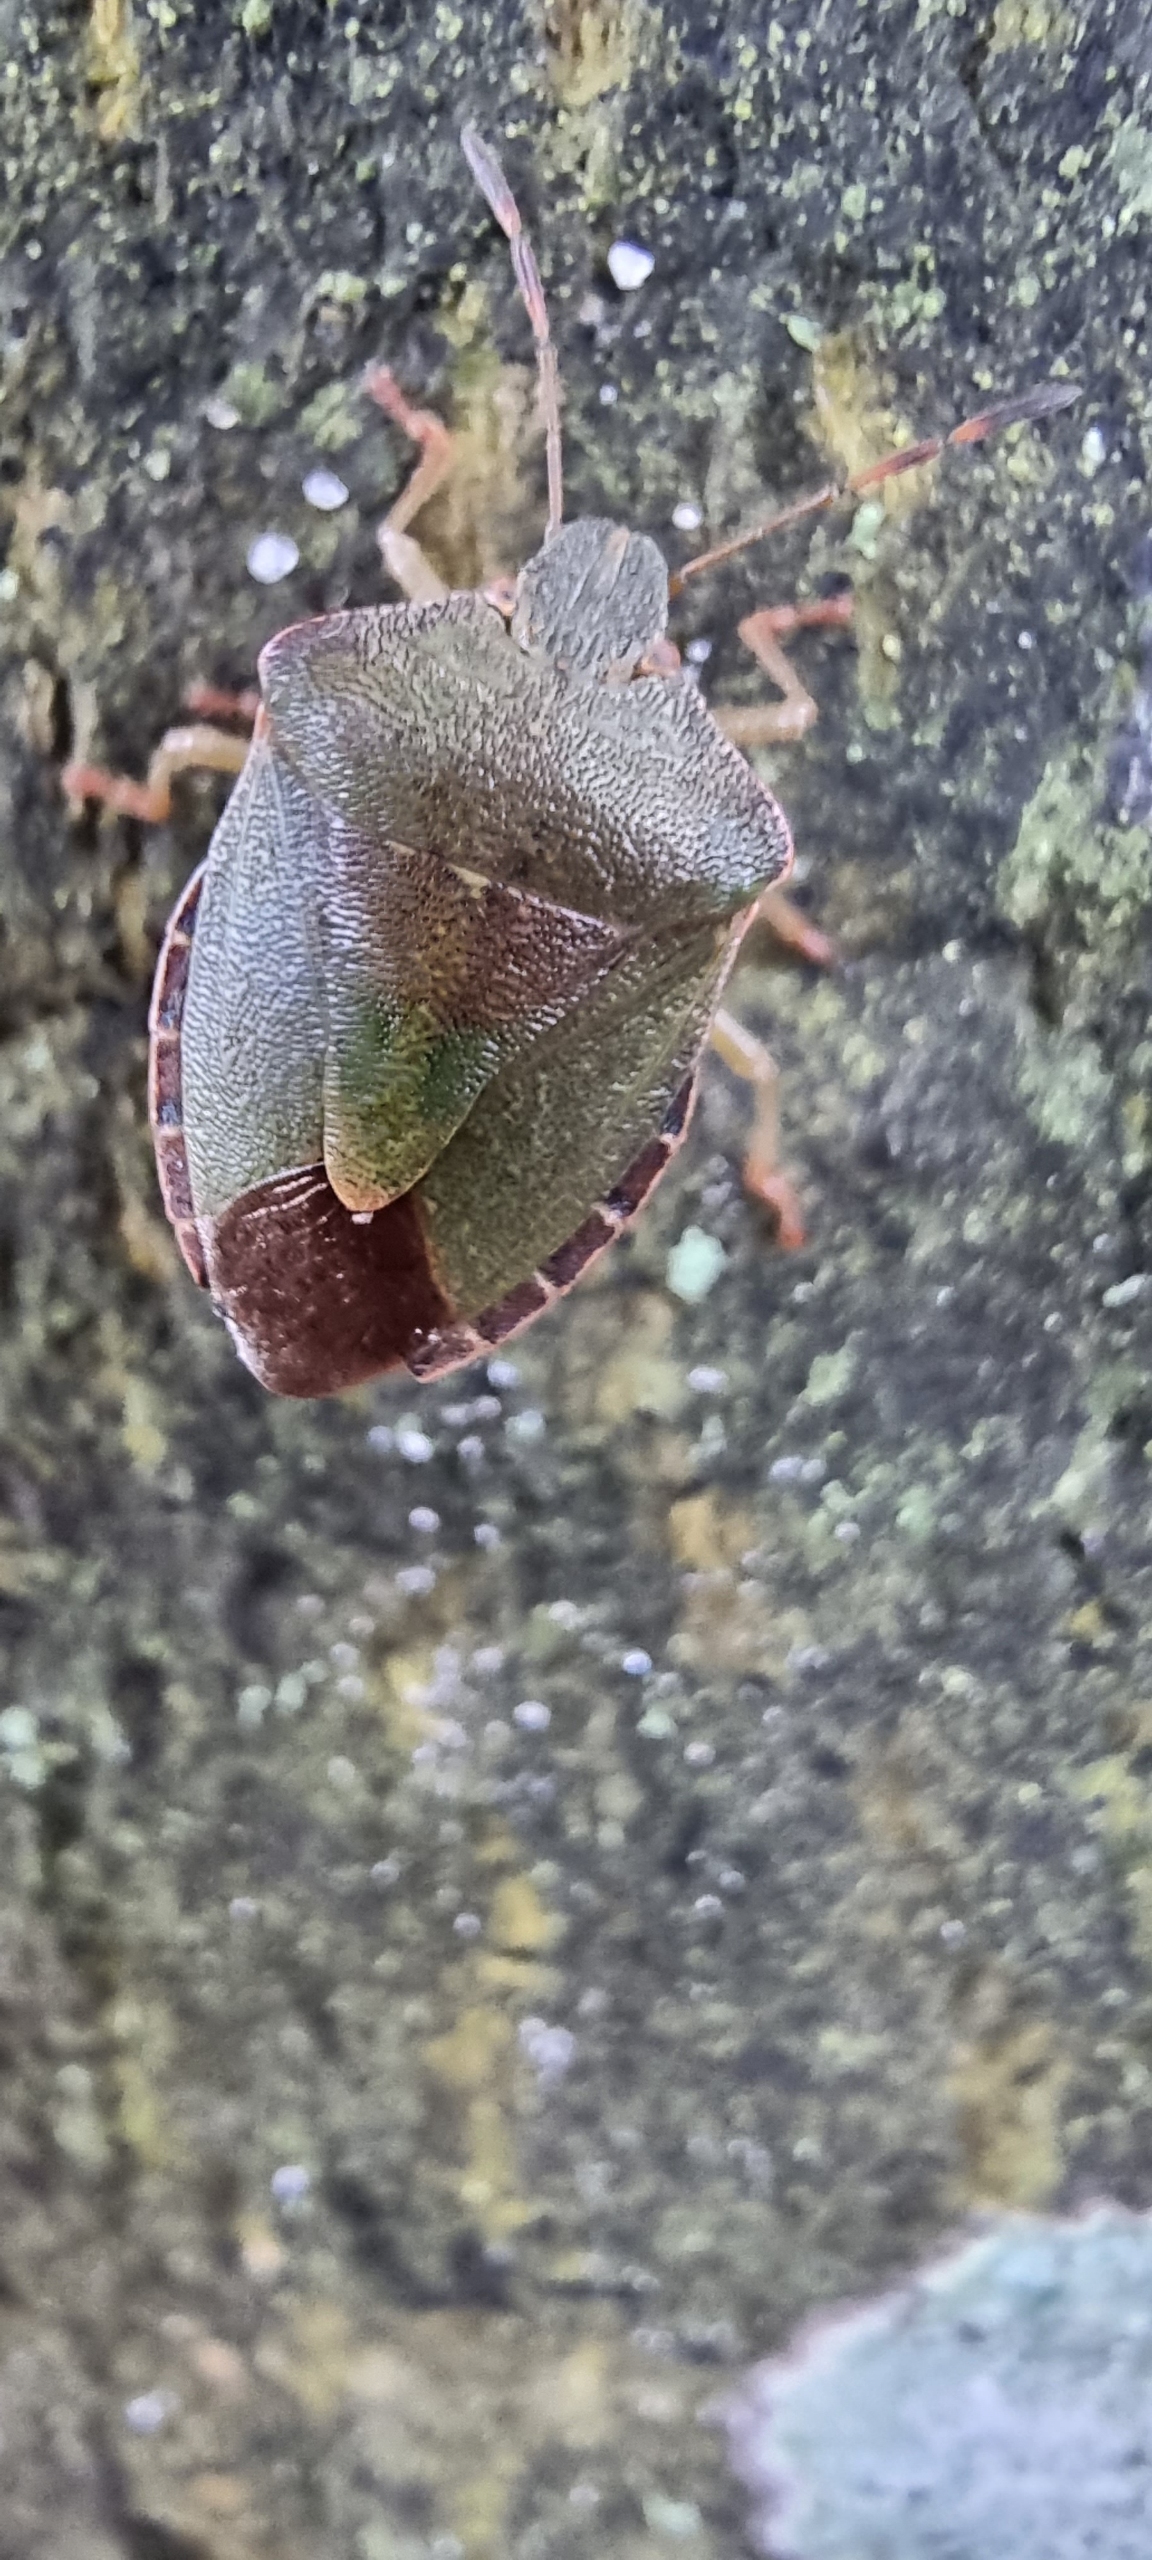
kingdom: Animalia
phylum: Arthropoda
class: Insecta
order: Hemiptera
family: Pentatomidae
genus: Palomena
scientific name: Palomena prasina
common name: Grøn bredtæge
